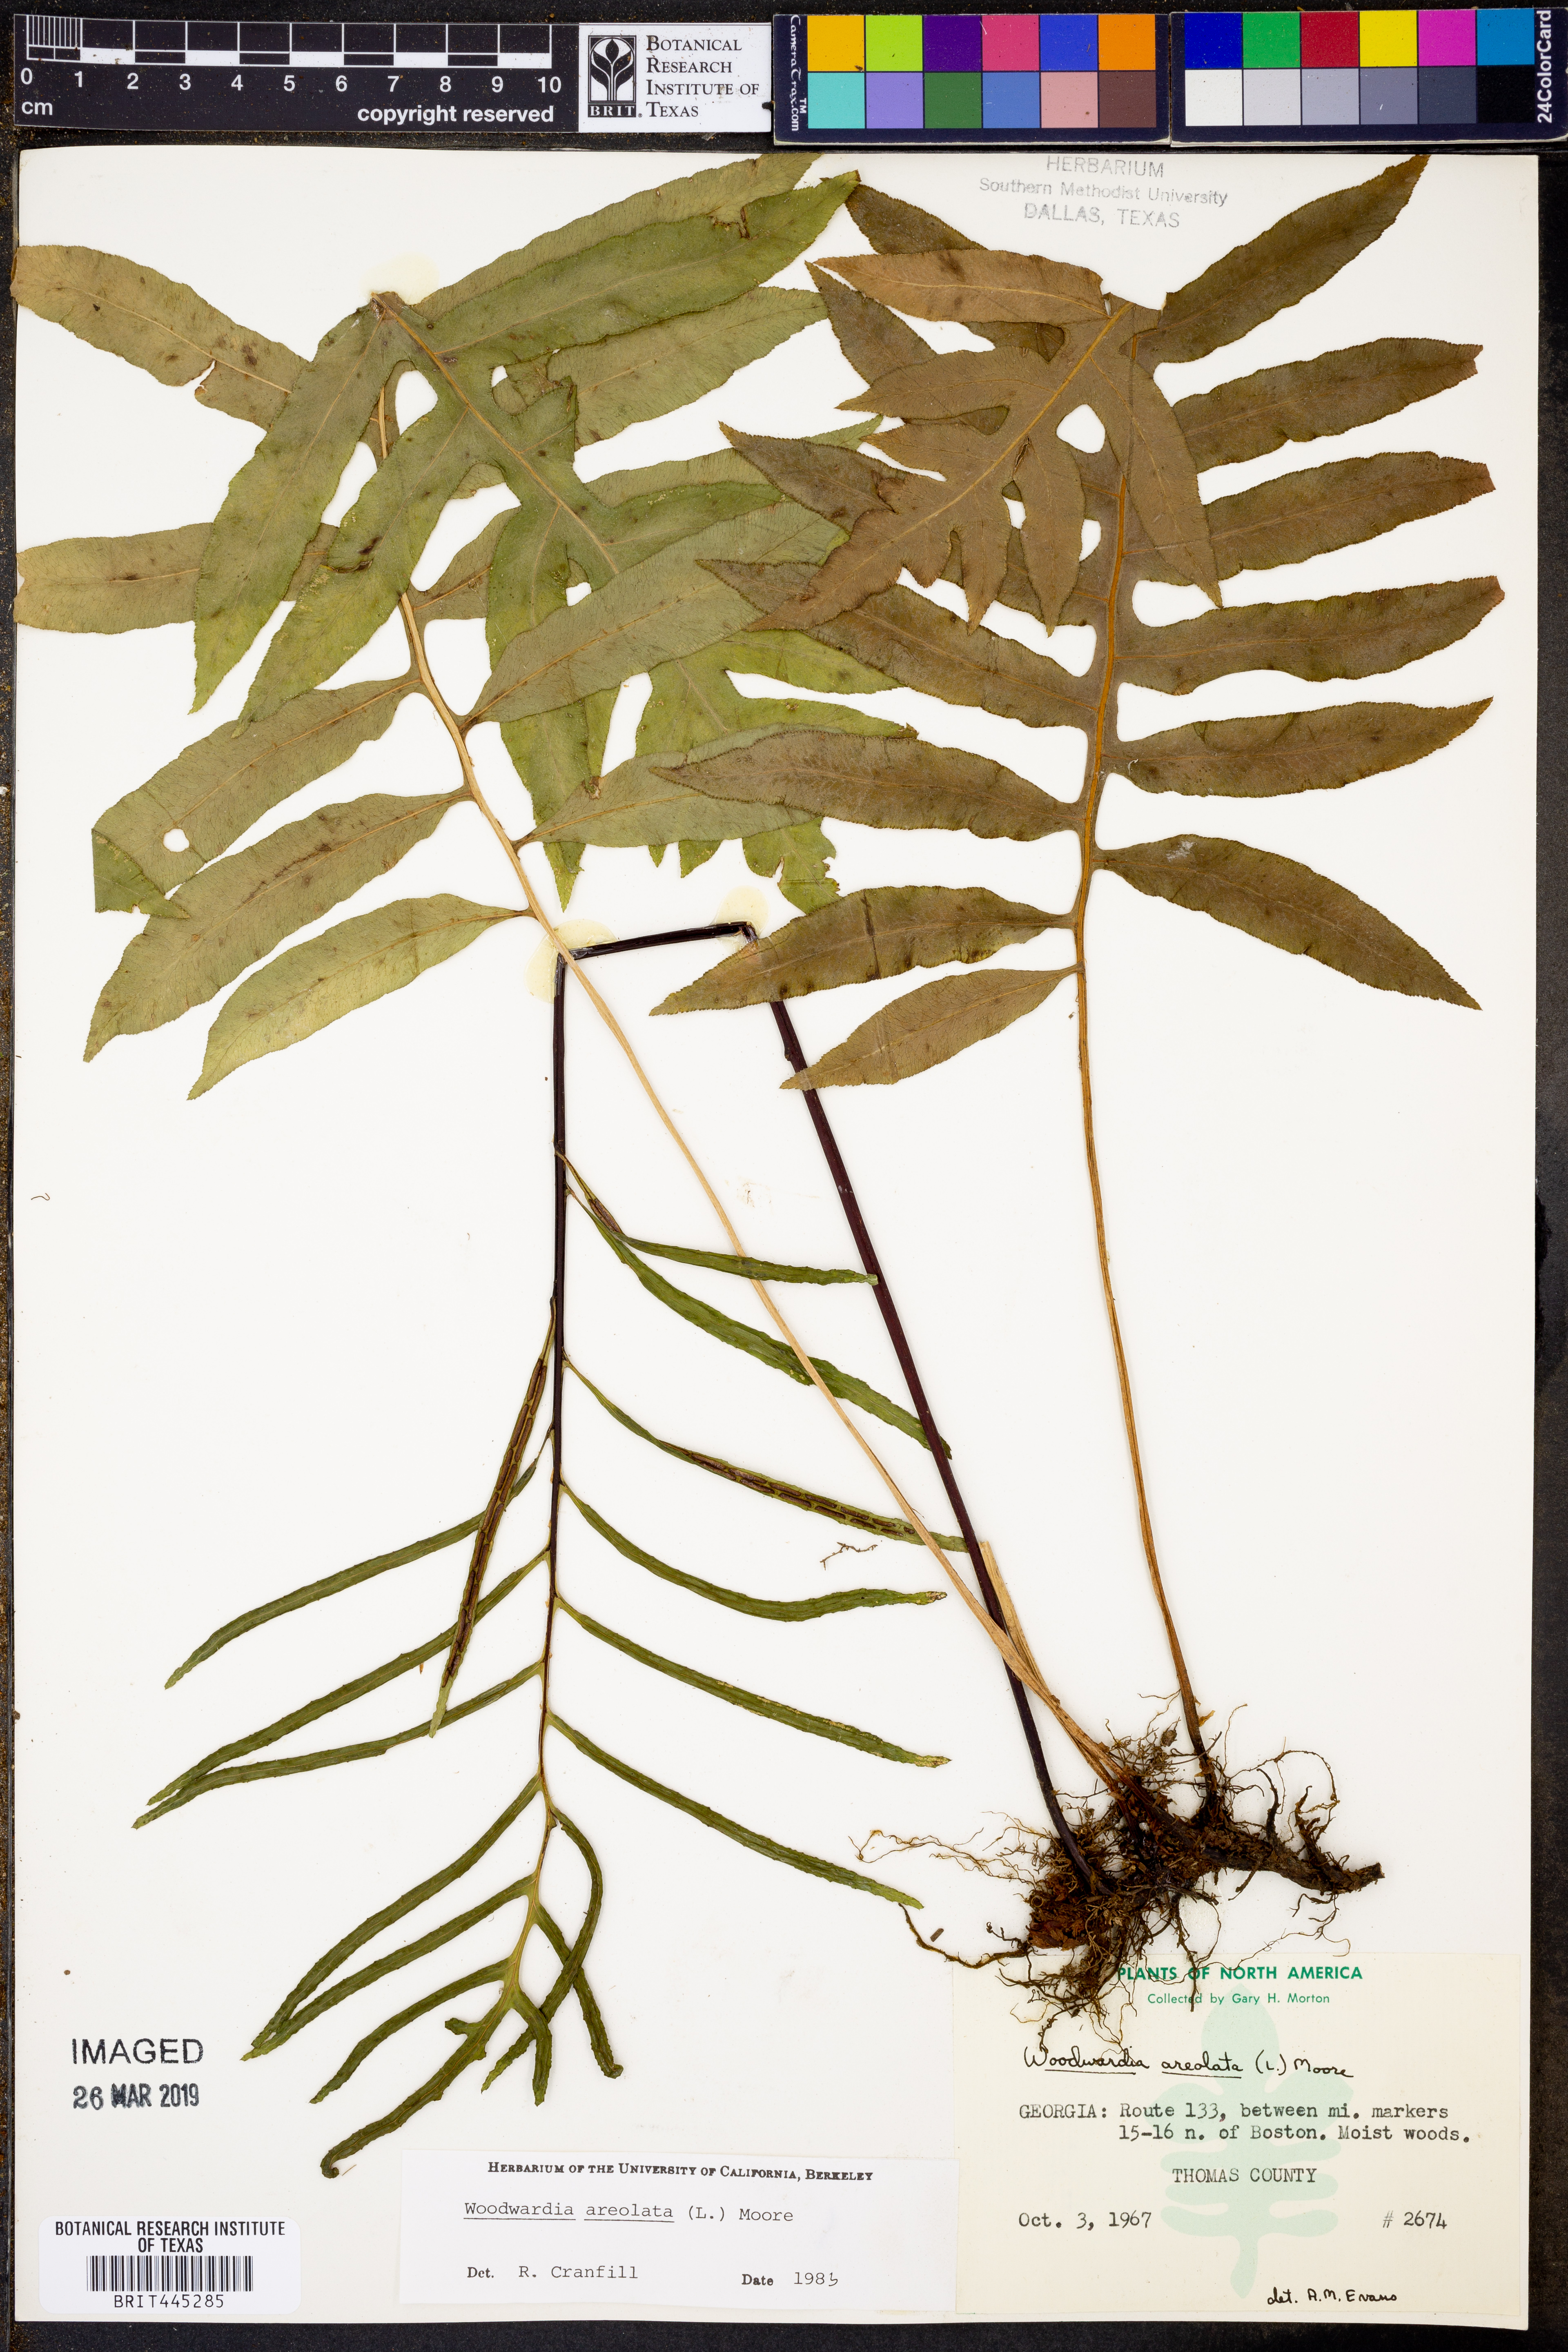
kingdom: Plantae
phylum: Tracheophyta
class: Polypodiopsida
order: Polypodiales
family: Blechnaceae
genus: Lorinseria
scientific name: Lorinseria areolata
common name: Dwarf chain fern
